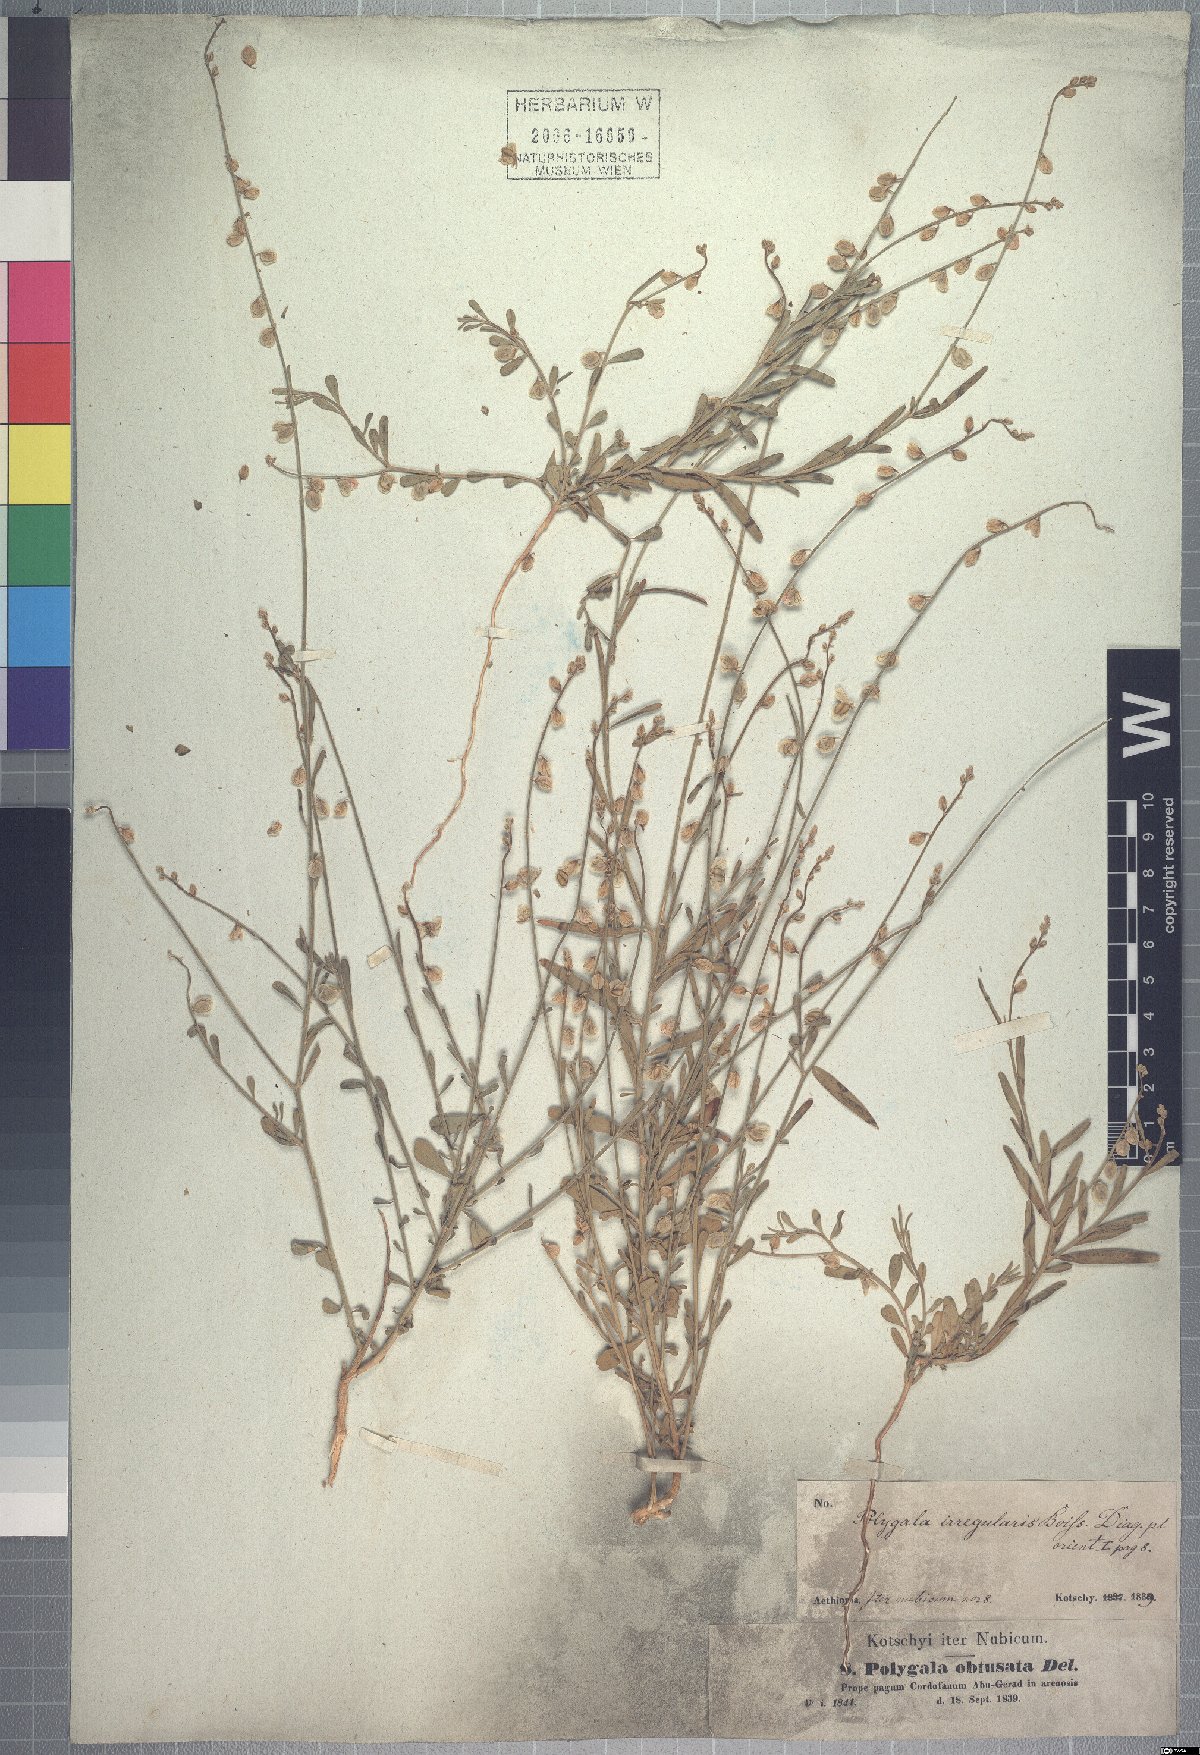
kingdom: Plantae
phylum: Tracheophyta
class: Magnoliopsida
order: Fabales
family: Polygalaceae
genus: Polygala
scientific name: Polygala irregularis
